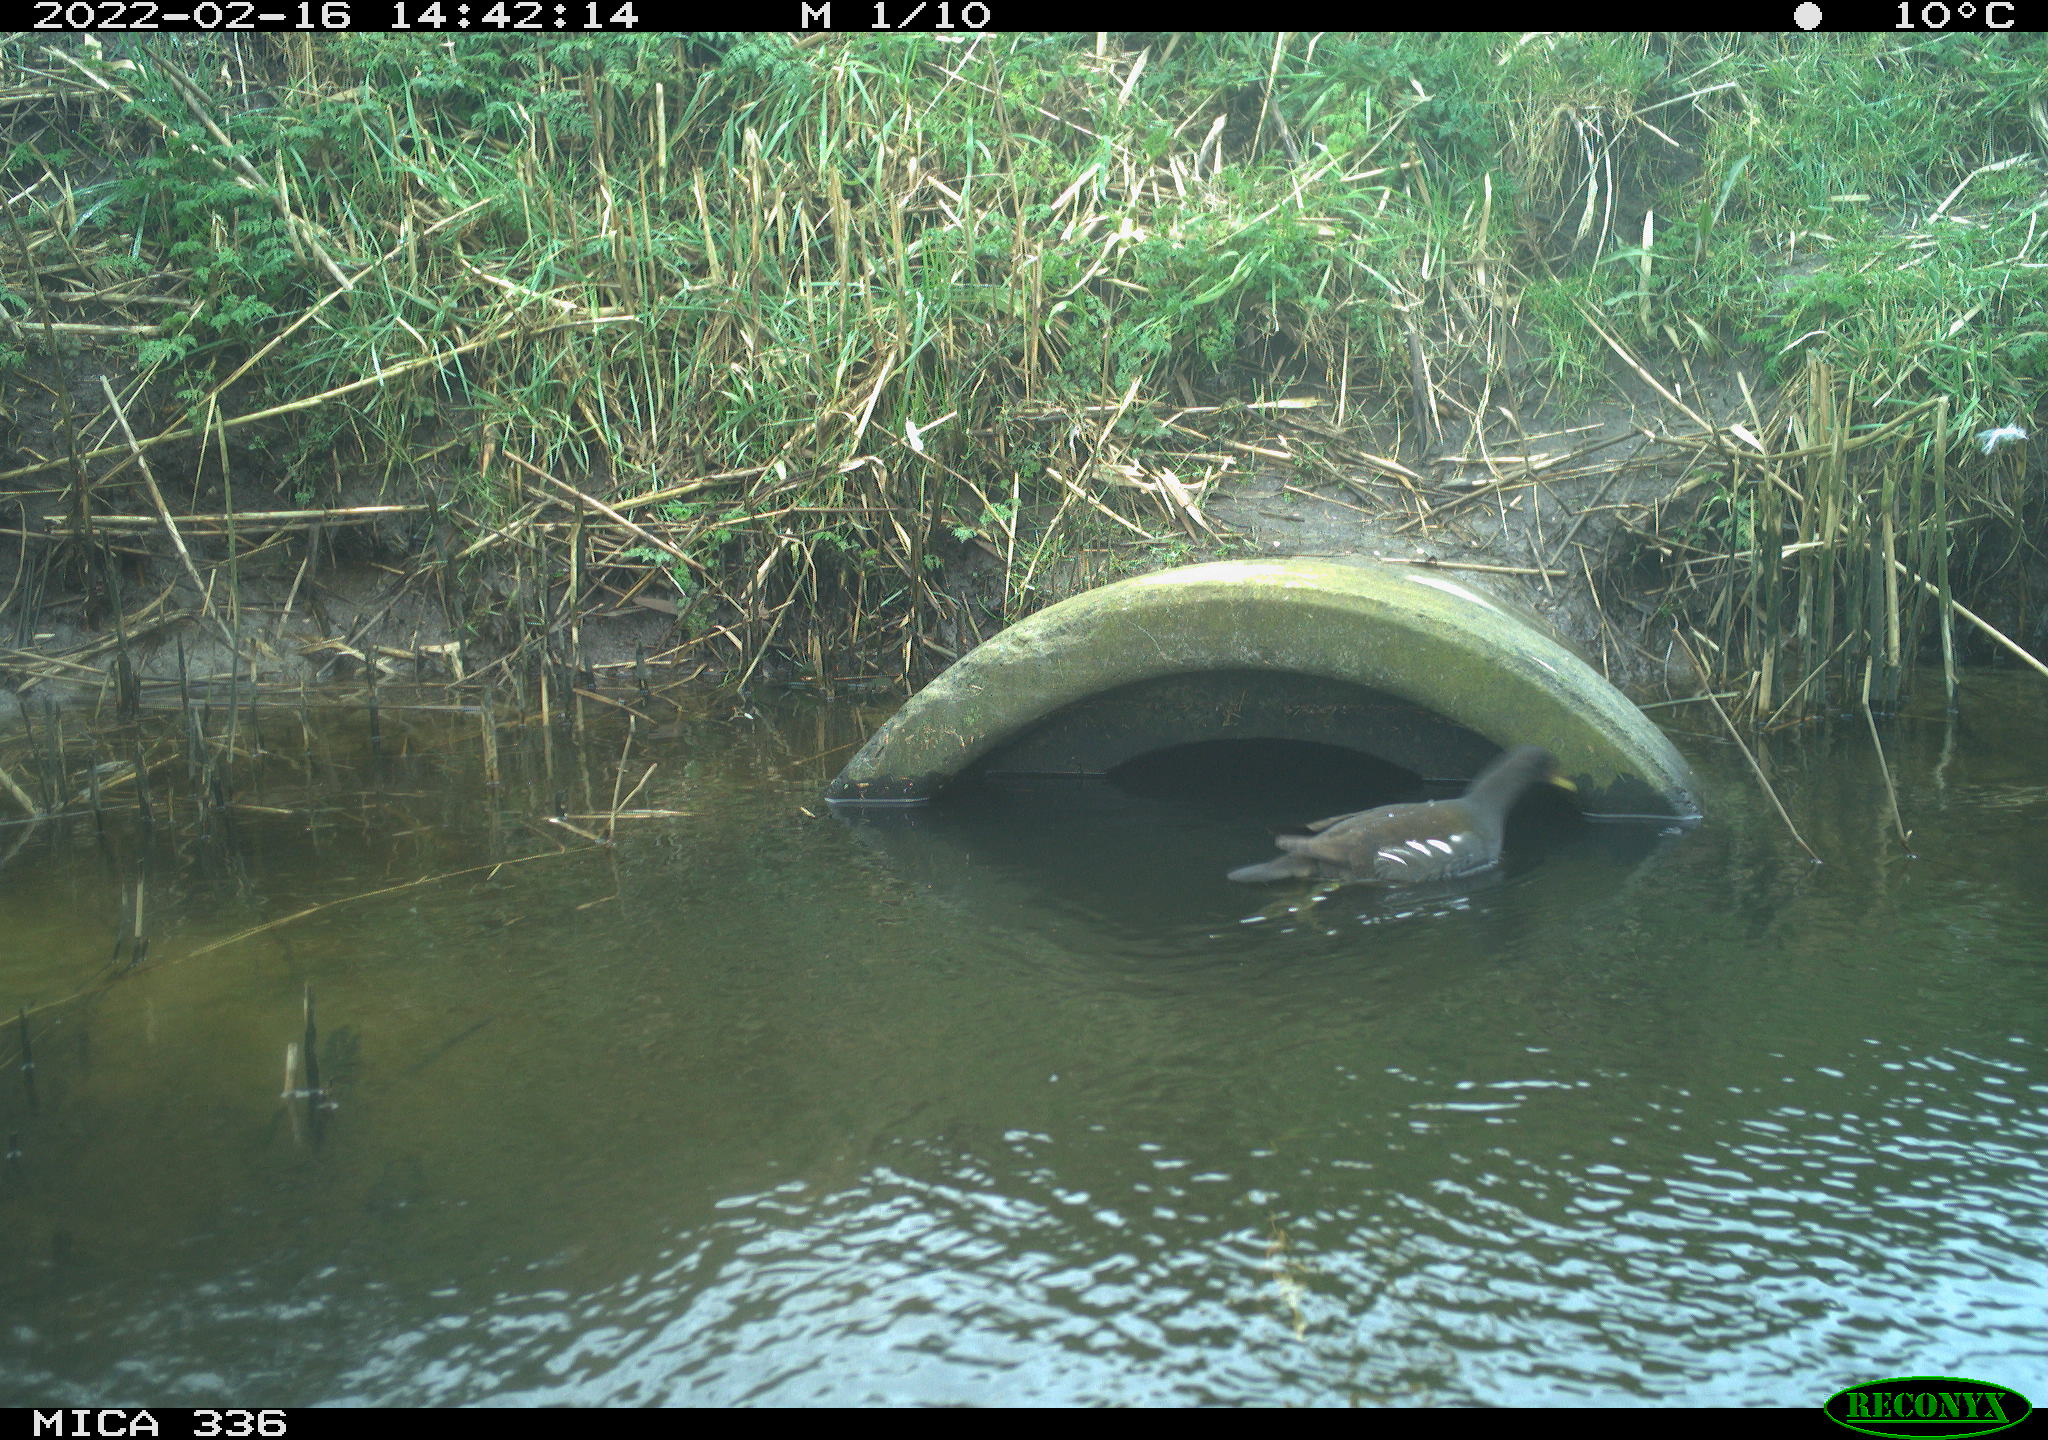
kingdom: Animalia
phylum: Chordata
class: Aves
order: Gruiformes
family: Rallidae
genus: Gallinula
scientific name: Gallinula chloropus
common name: Common moorhen
